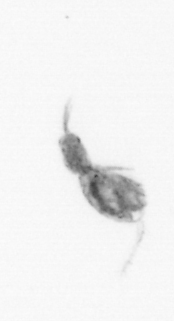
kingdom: Animalia
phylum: Arthropoda
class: Copepoda
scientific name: Copepoda
